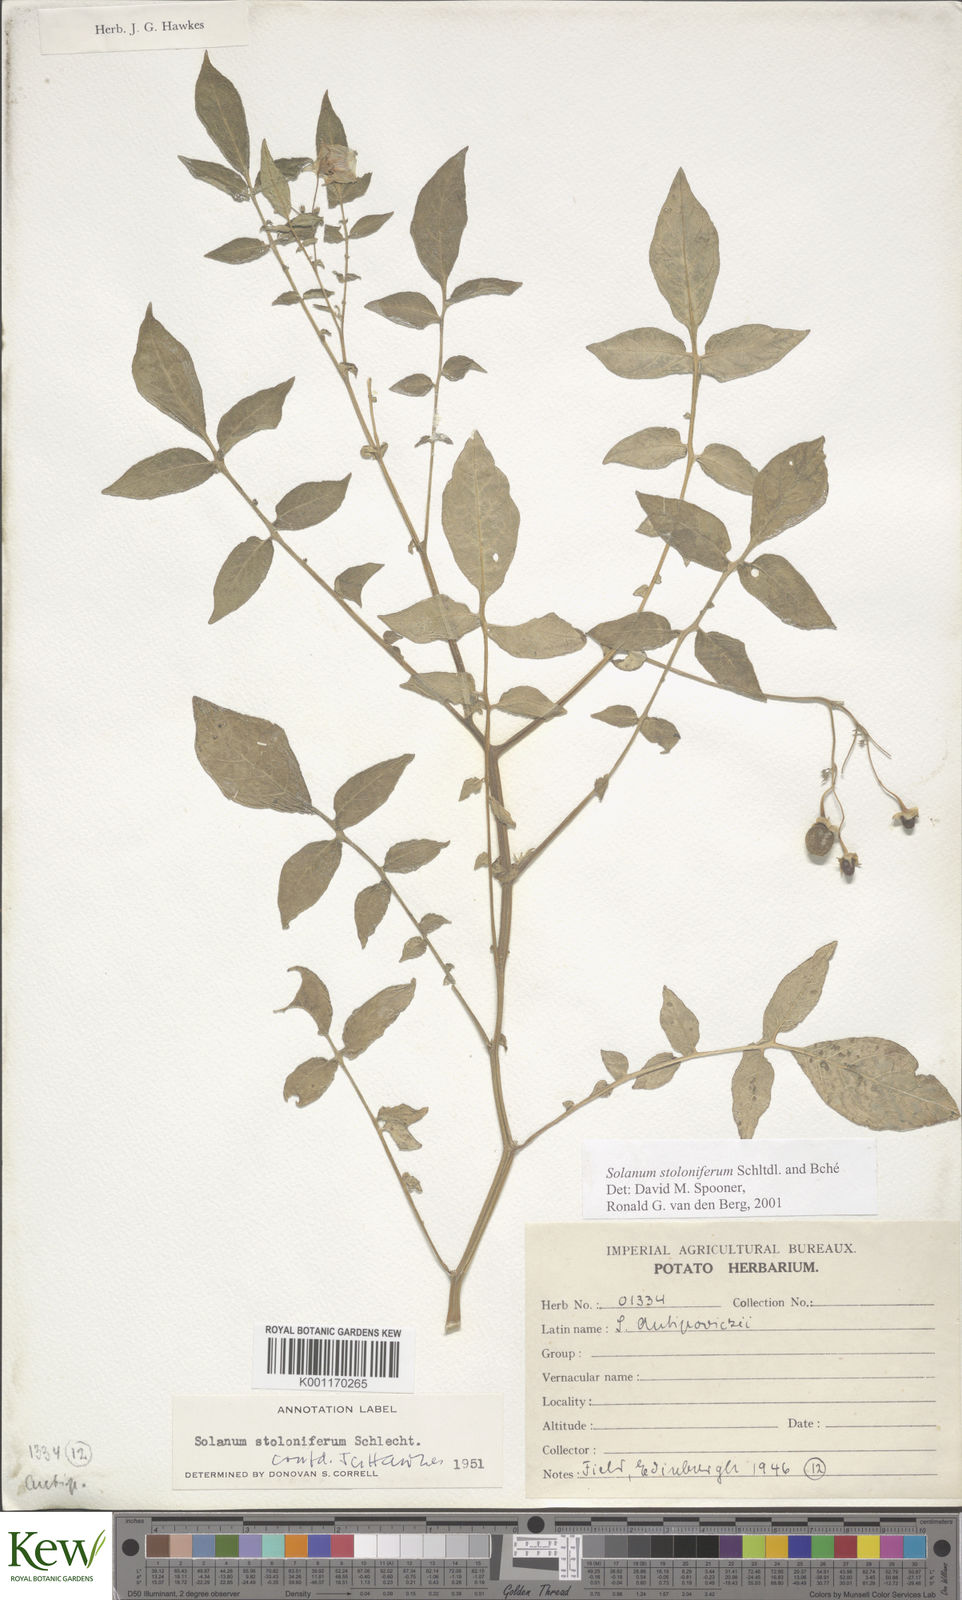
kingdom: Plantae
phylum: Tracheophyta
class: Magnoliopsida
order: Solanales
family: Solanaceae
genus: Solanum
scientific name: Solanum stoloniferum
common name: Fendler's nighshade
